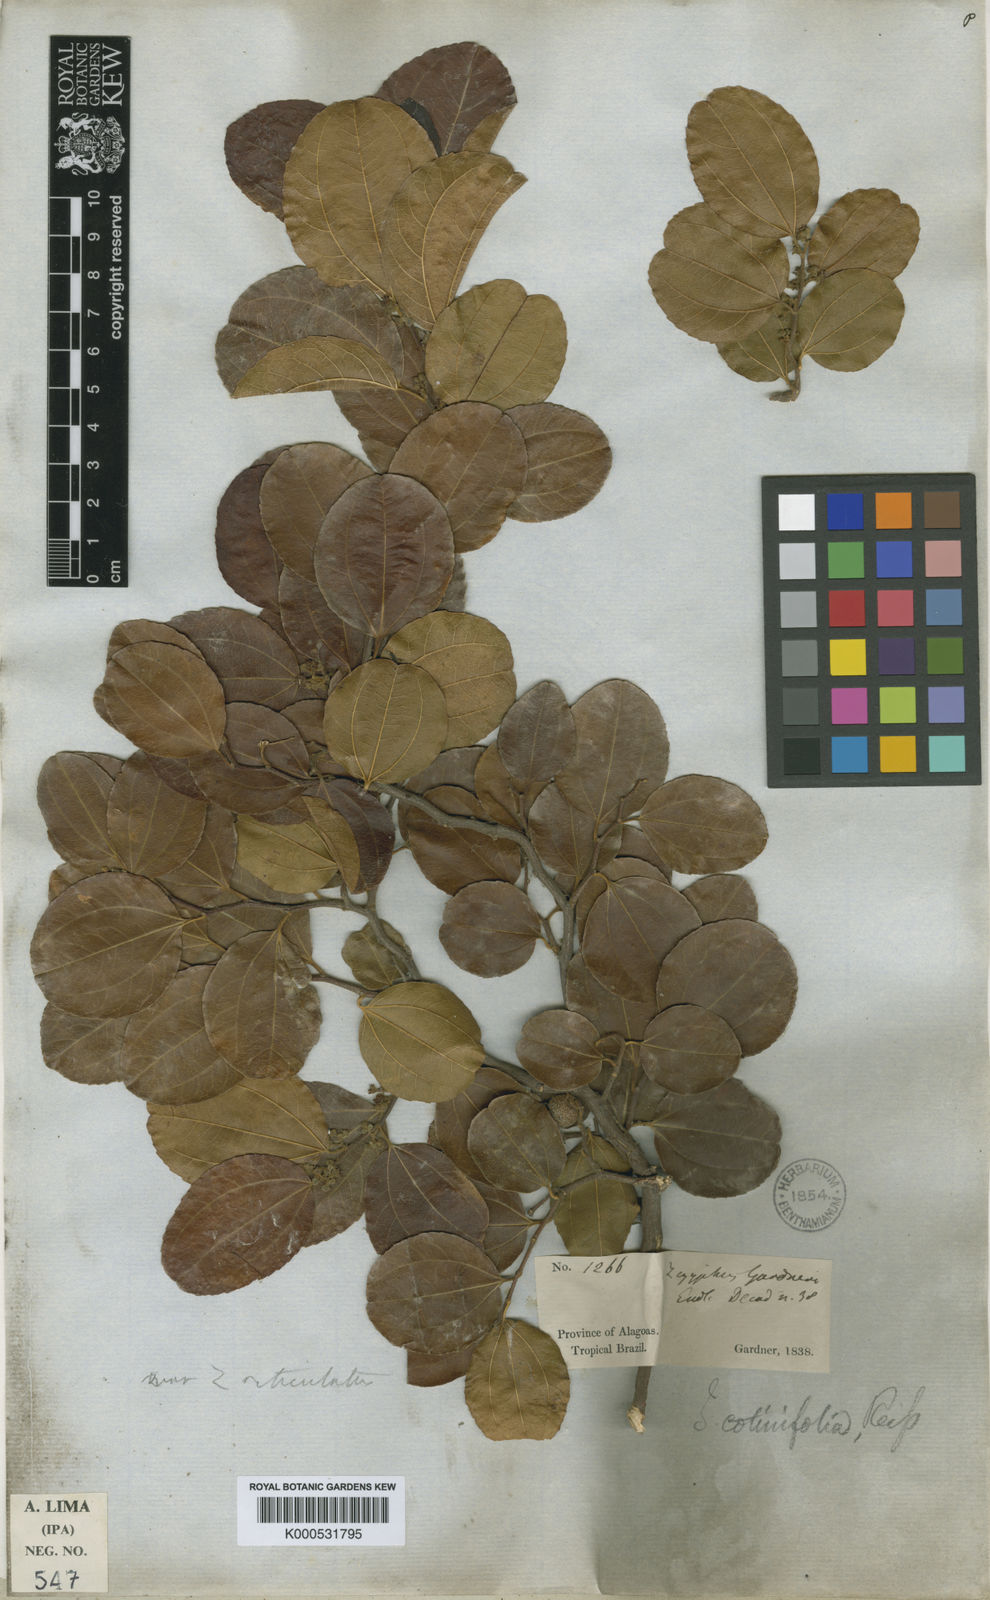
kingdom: Plantae
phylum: Tracheophyta
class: Magnoliopsida
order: Rosales
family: Rhamnaceae
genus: Sarcomphalus
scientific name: Sarcomphalus cotinifolius
